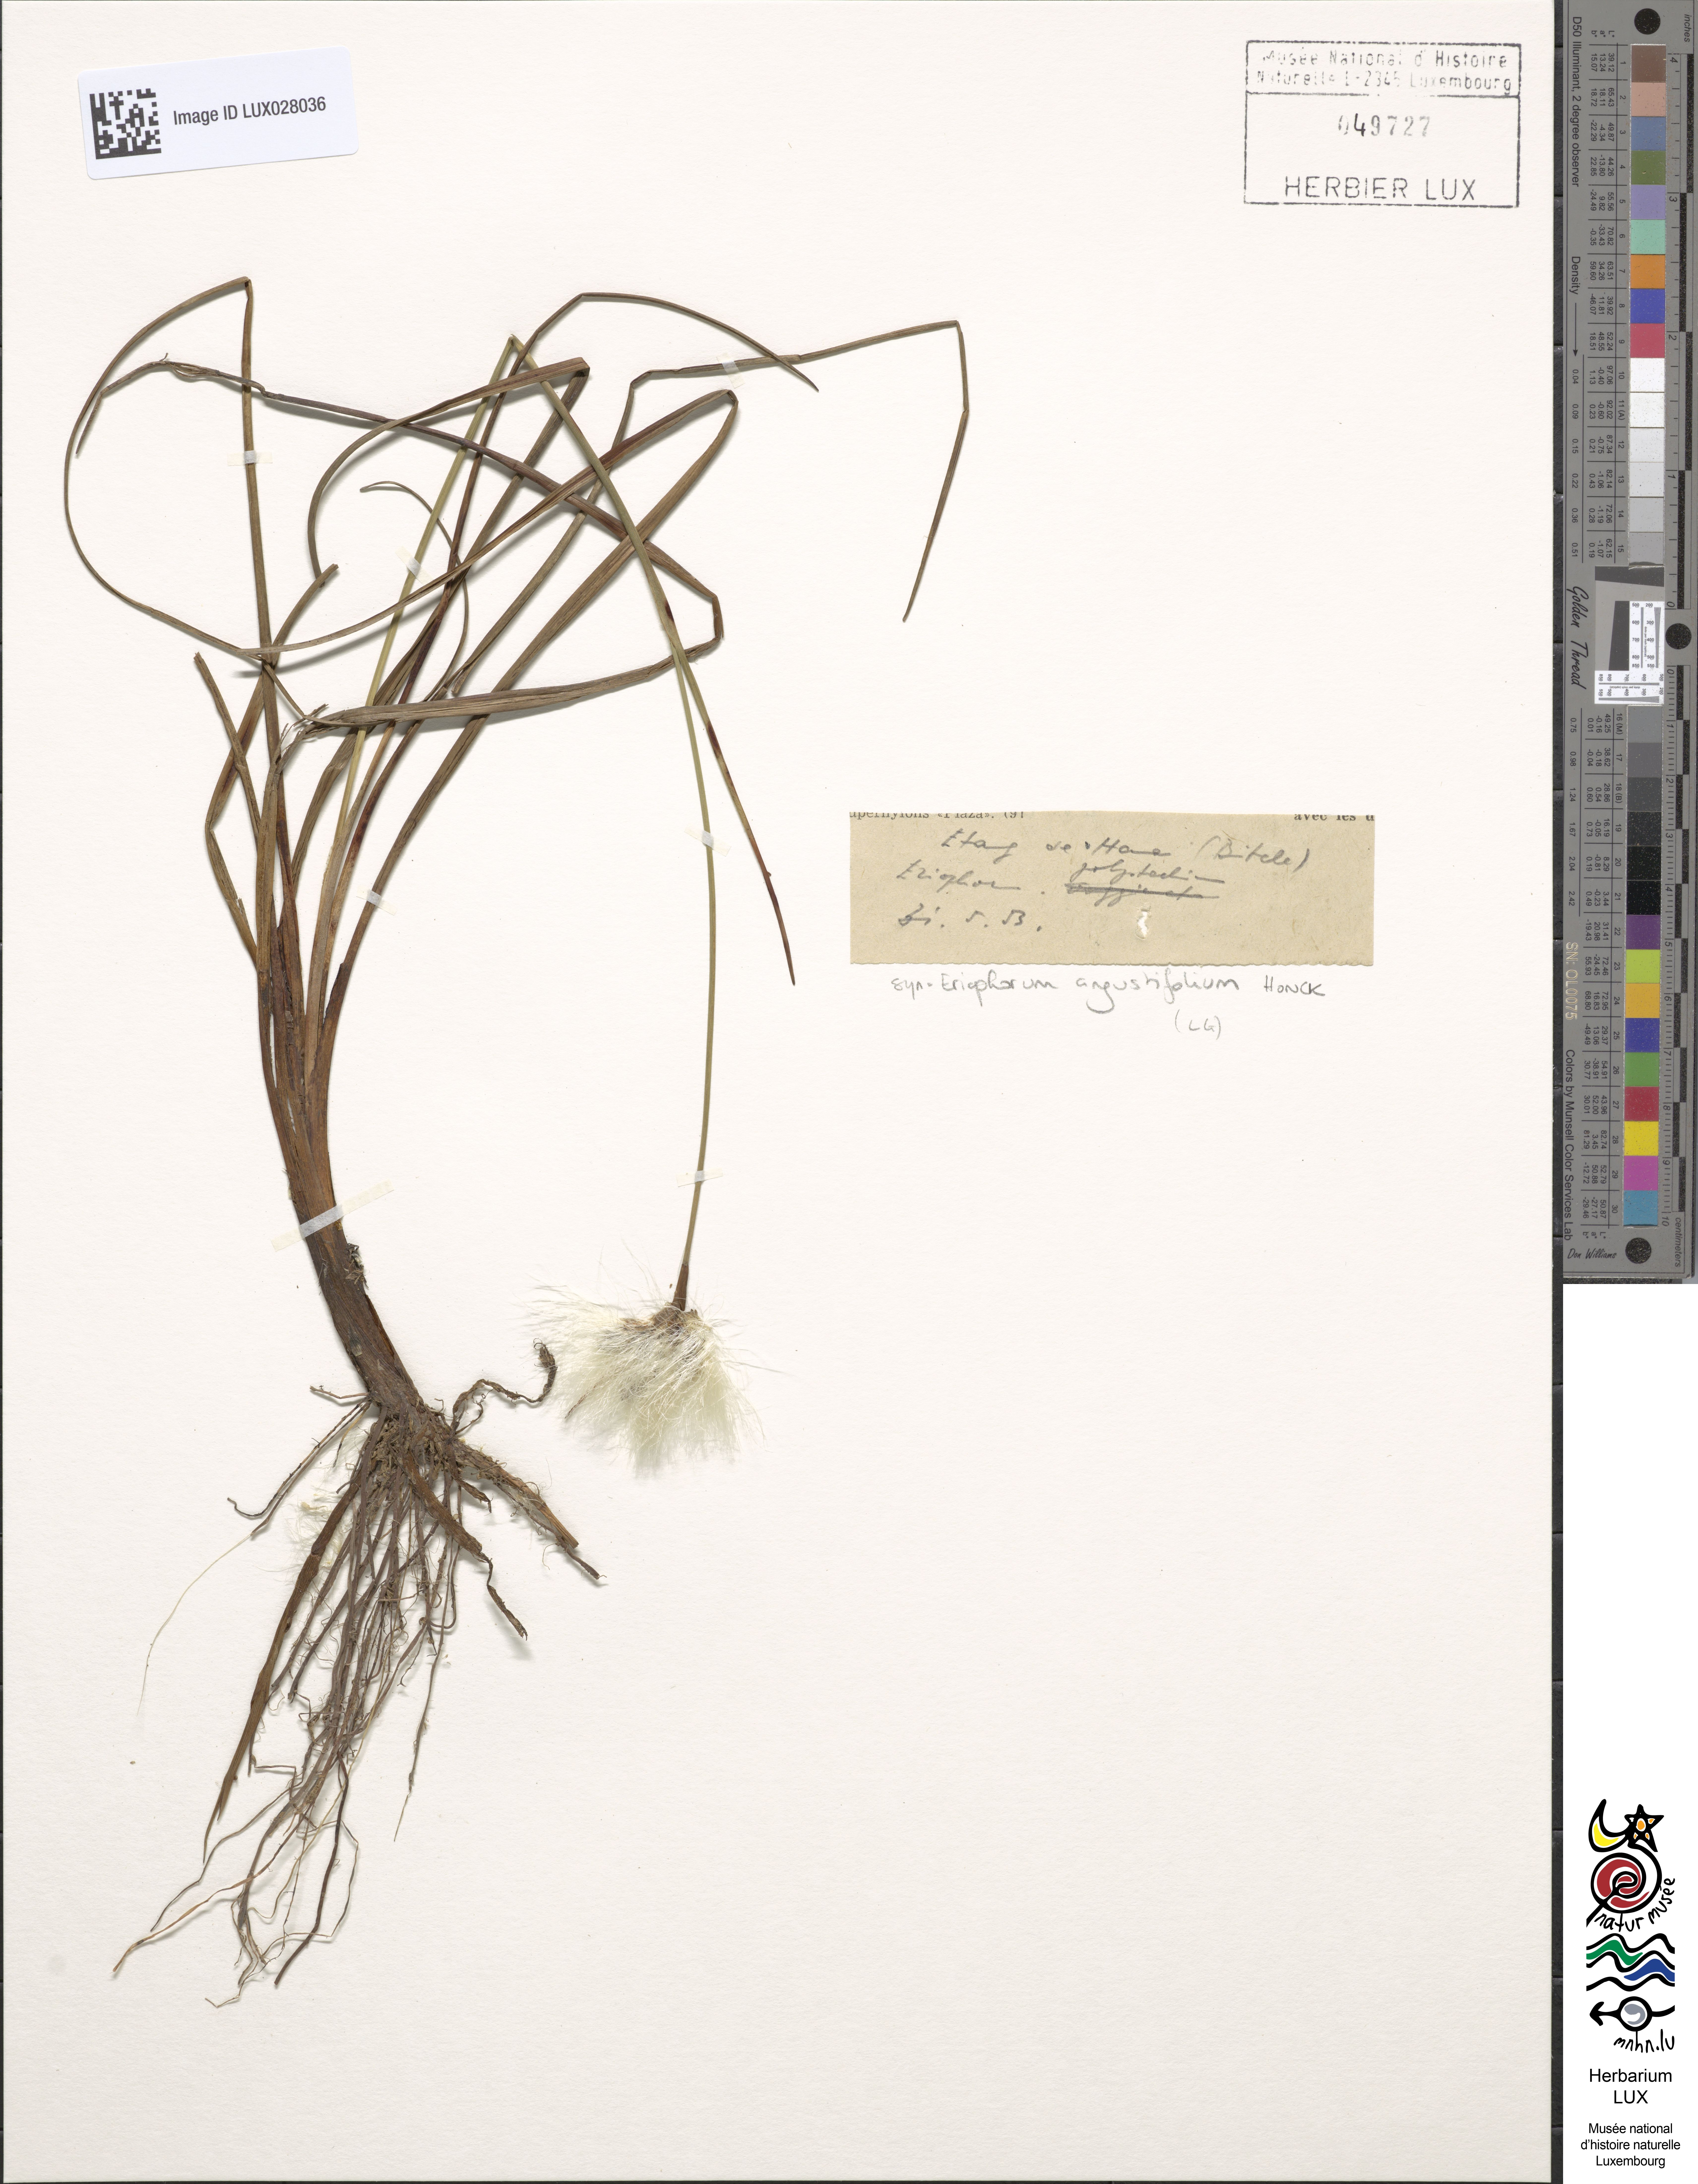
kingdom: Plantae
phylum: Tracheophyta
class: Liliopsida
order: Poales
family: Cyperaceae
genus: Eriophorum
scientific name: Eriophorum angustifolium
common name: Common cottongrass
